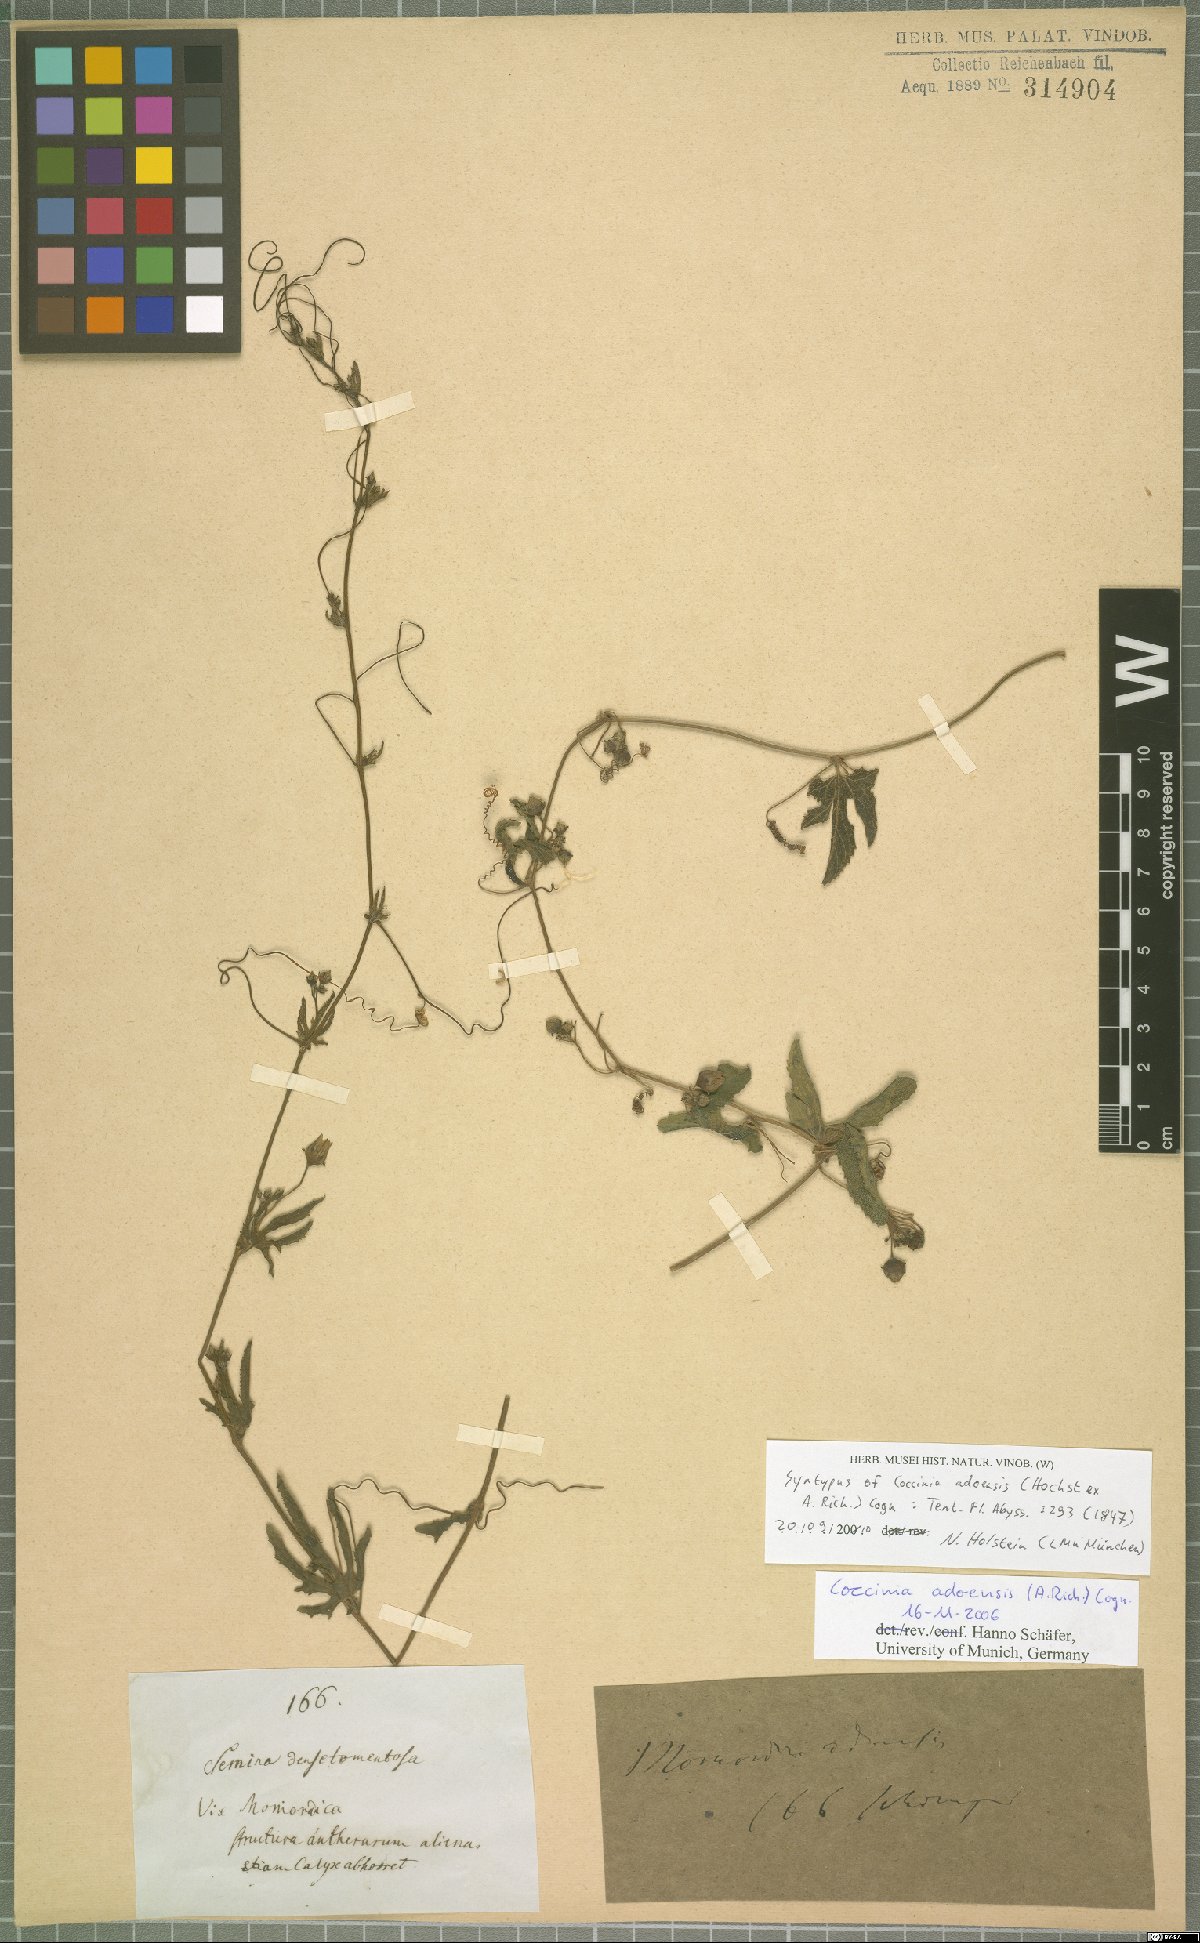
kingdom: Plantae
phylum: Tracheophyta
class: Magnoliopsida
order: Cucurbitales
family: Cucurbitaceae
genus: Coccinia
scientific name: Coccinia adoensis
